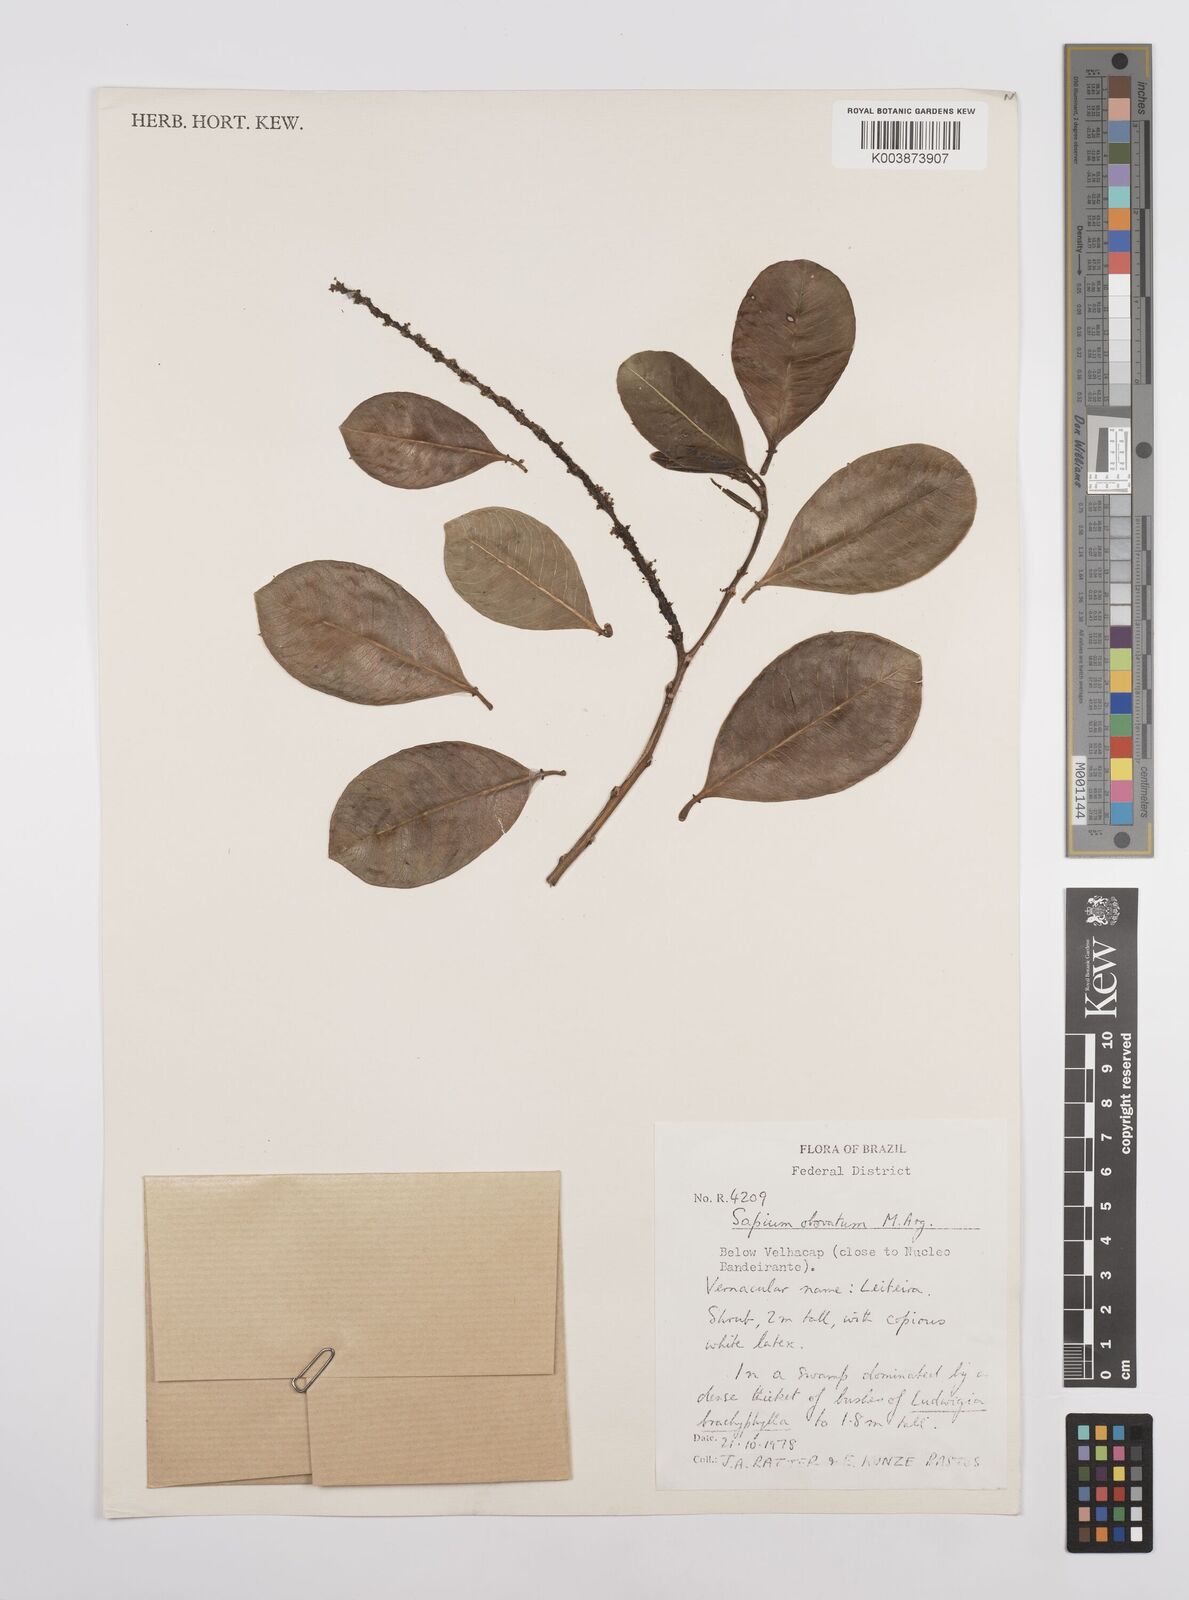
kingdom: Plantae
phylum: Tracheophyta
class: Magnoliopsida
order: Malpighiales
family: Euphorbiaceae
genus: Sapium
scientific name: Sapium obovatum
